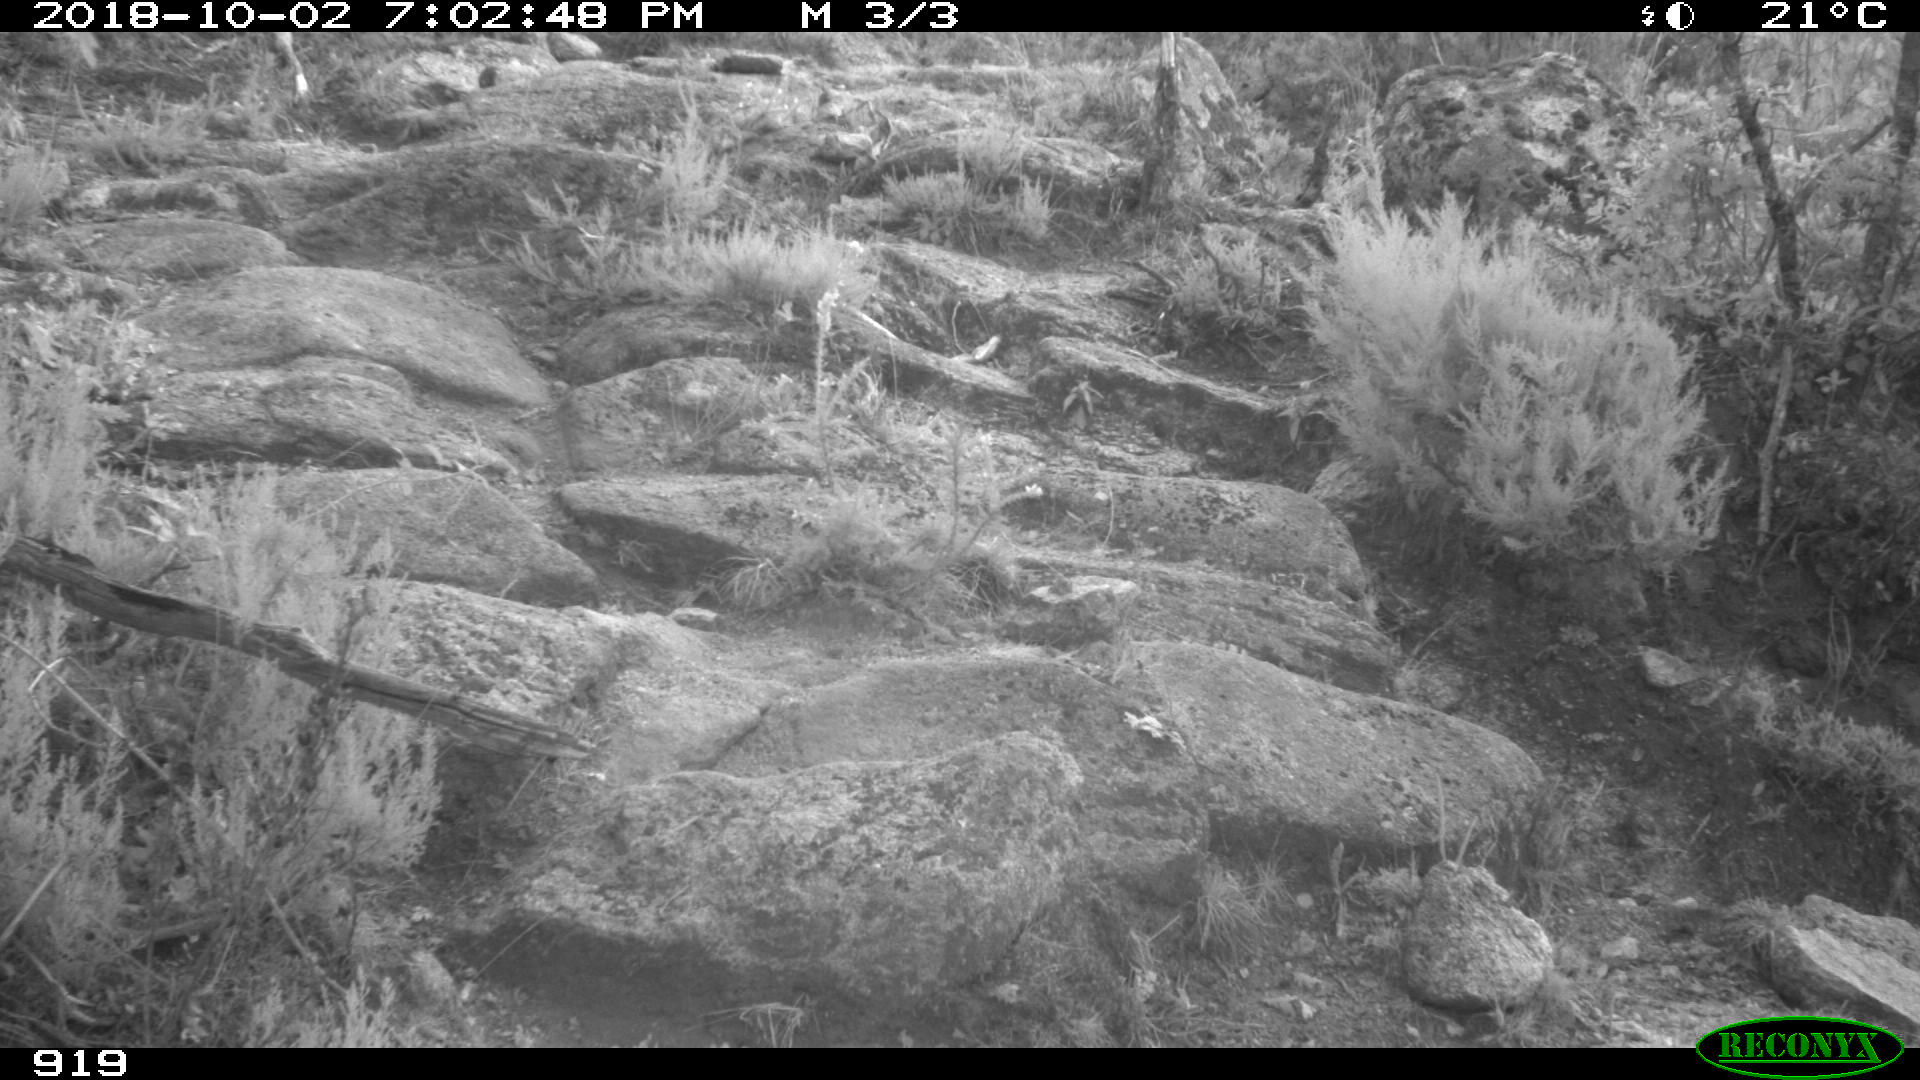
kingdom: Animalia
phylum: Chordata
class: Mammalia
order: Artiodactyla
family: Bovidae
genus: Bos
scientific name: Bos taurus
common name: Domesticated cattle
